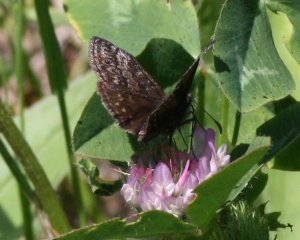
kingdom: Animalia
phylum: Arthropoda
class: Insecta
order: Lepidoptera
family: Hesperiidae
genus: Erynnis
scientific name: Erynnis icelus
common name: Dreamy Duskywing
